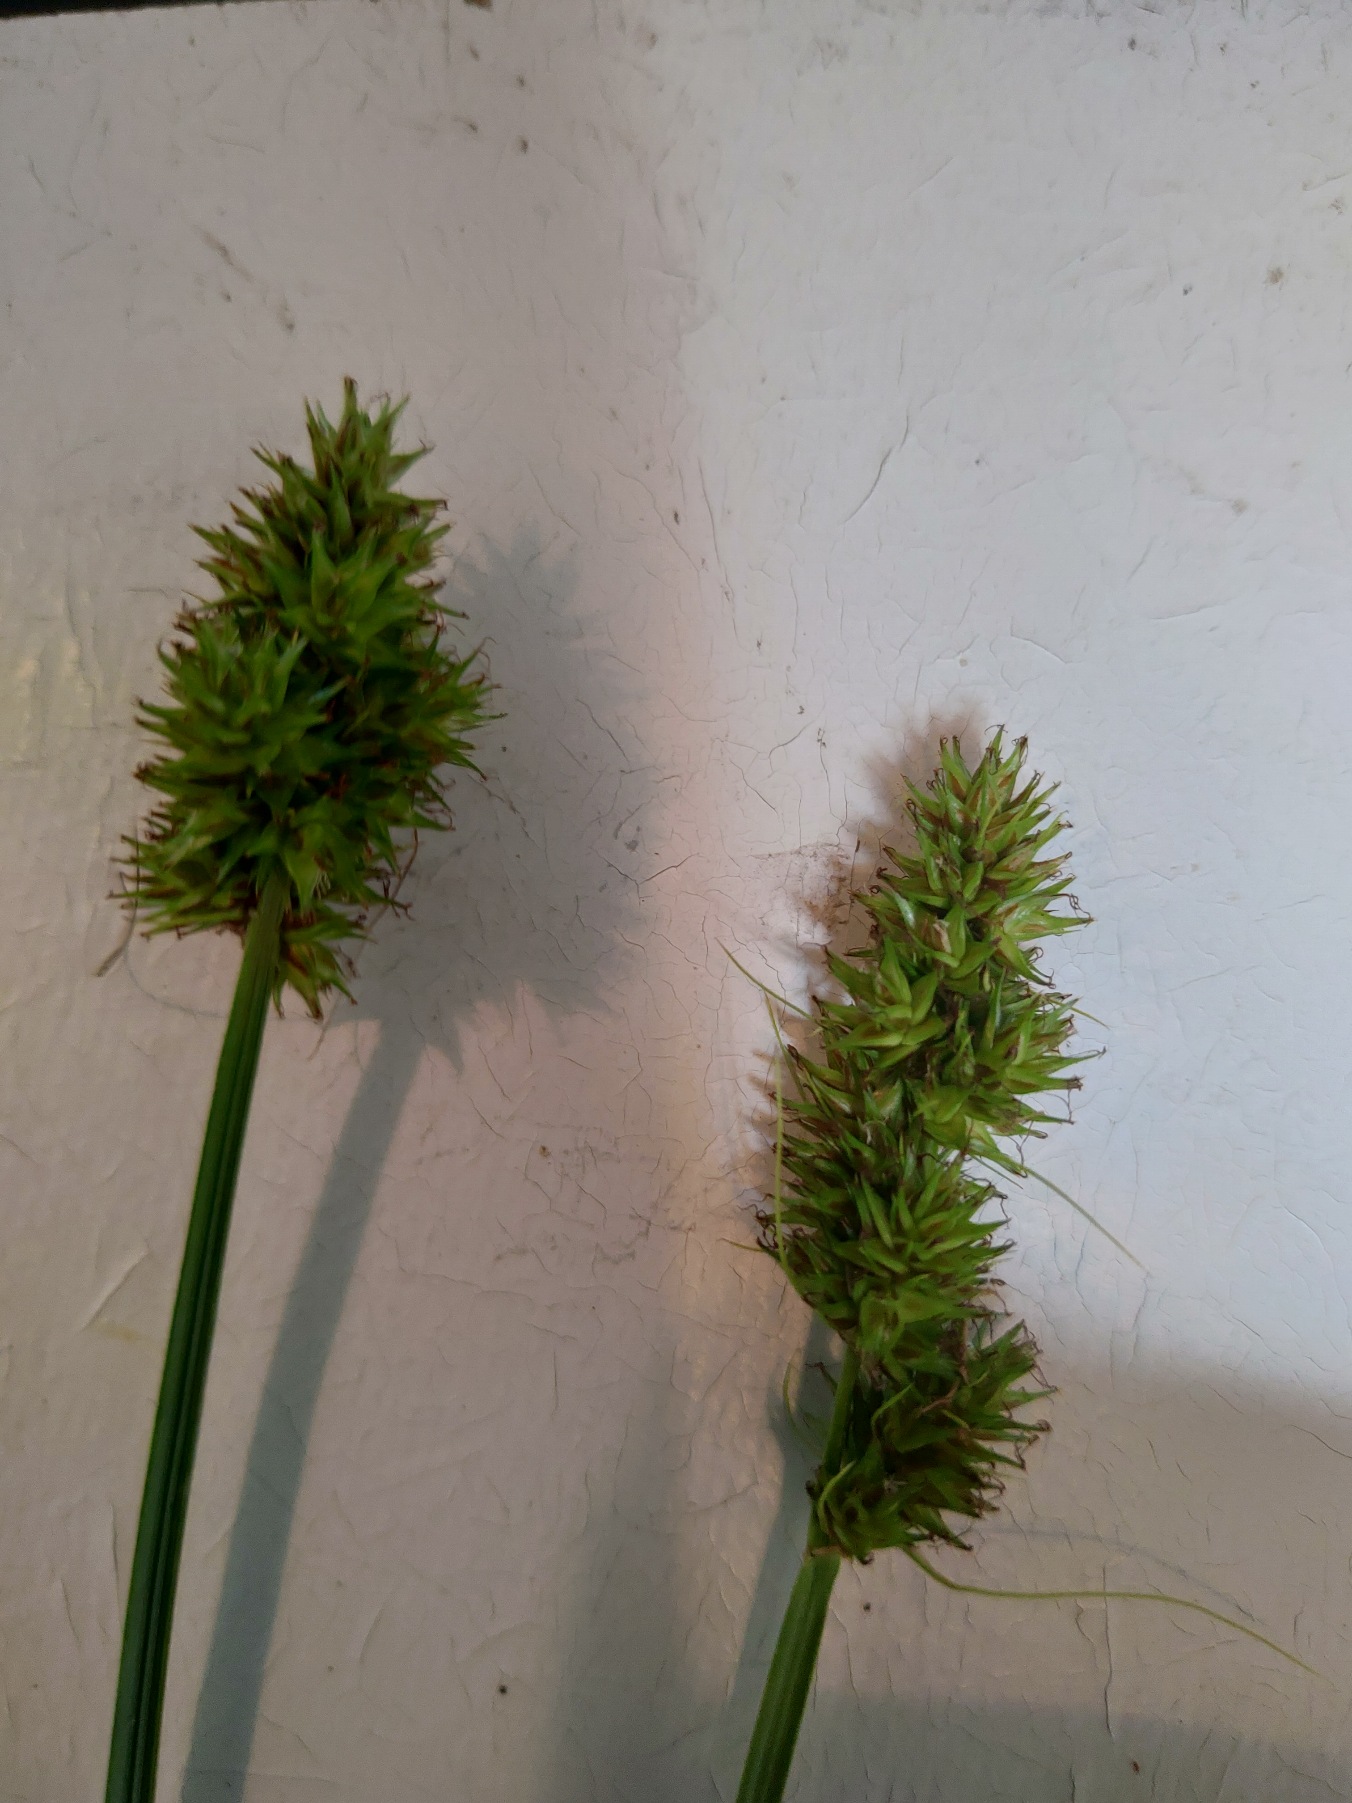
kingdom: Plantae
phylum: Tracheophyta
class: Liliopsida
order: Poales
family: Cyperaceae
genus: Carex
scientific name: Carex otrubae
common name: Sylt-star
